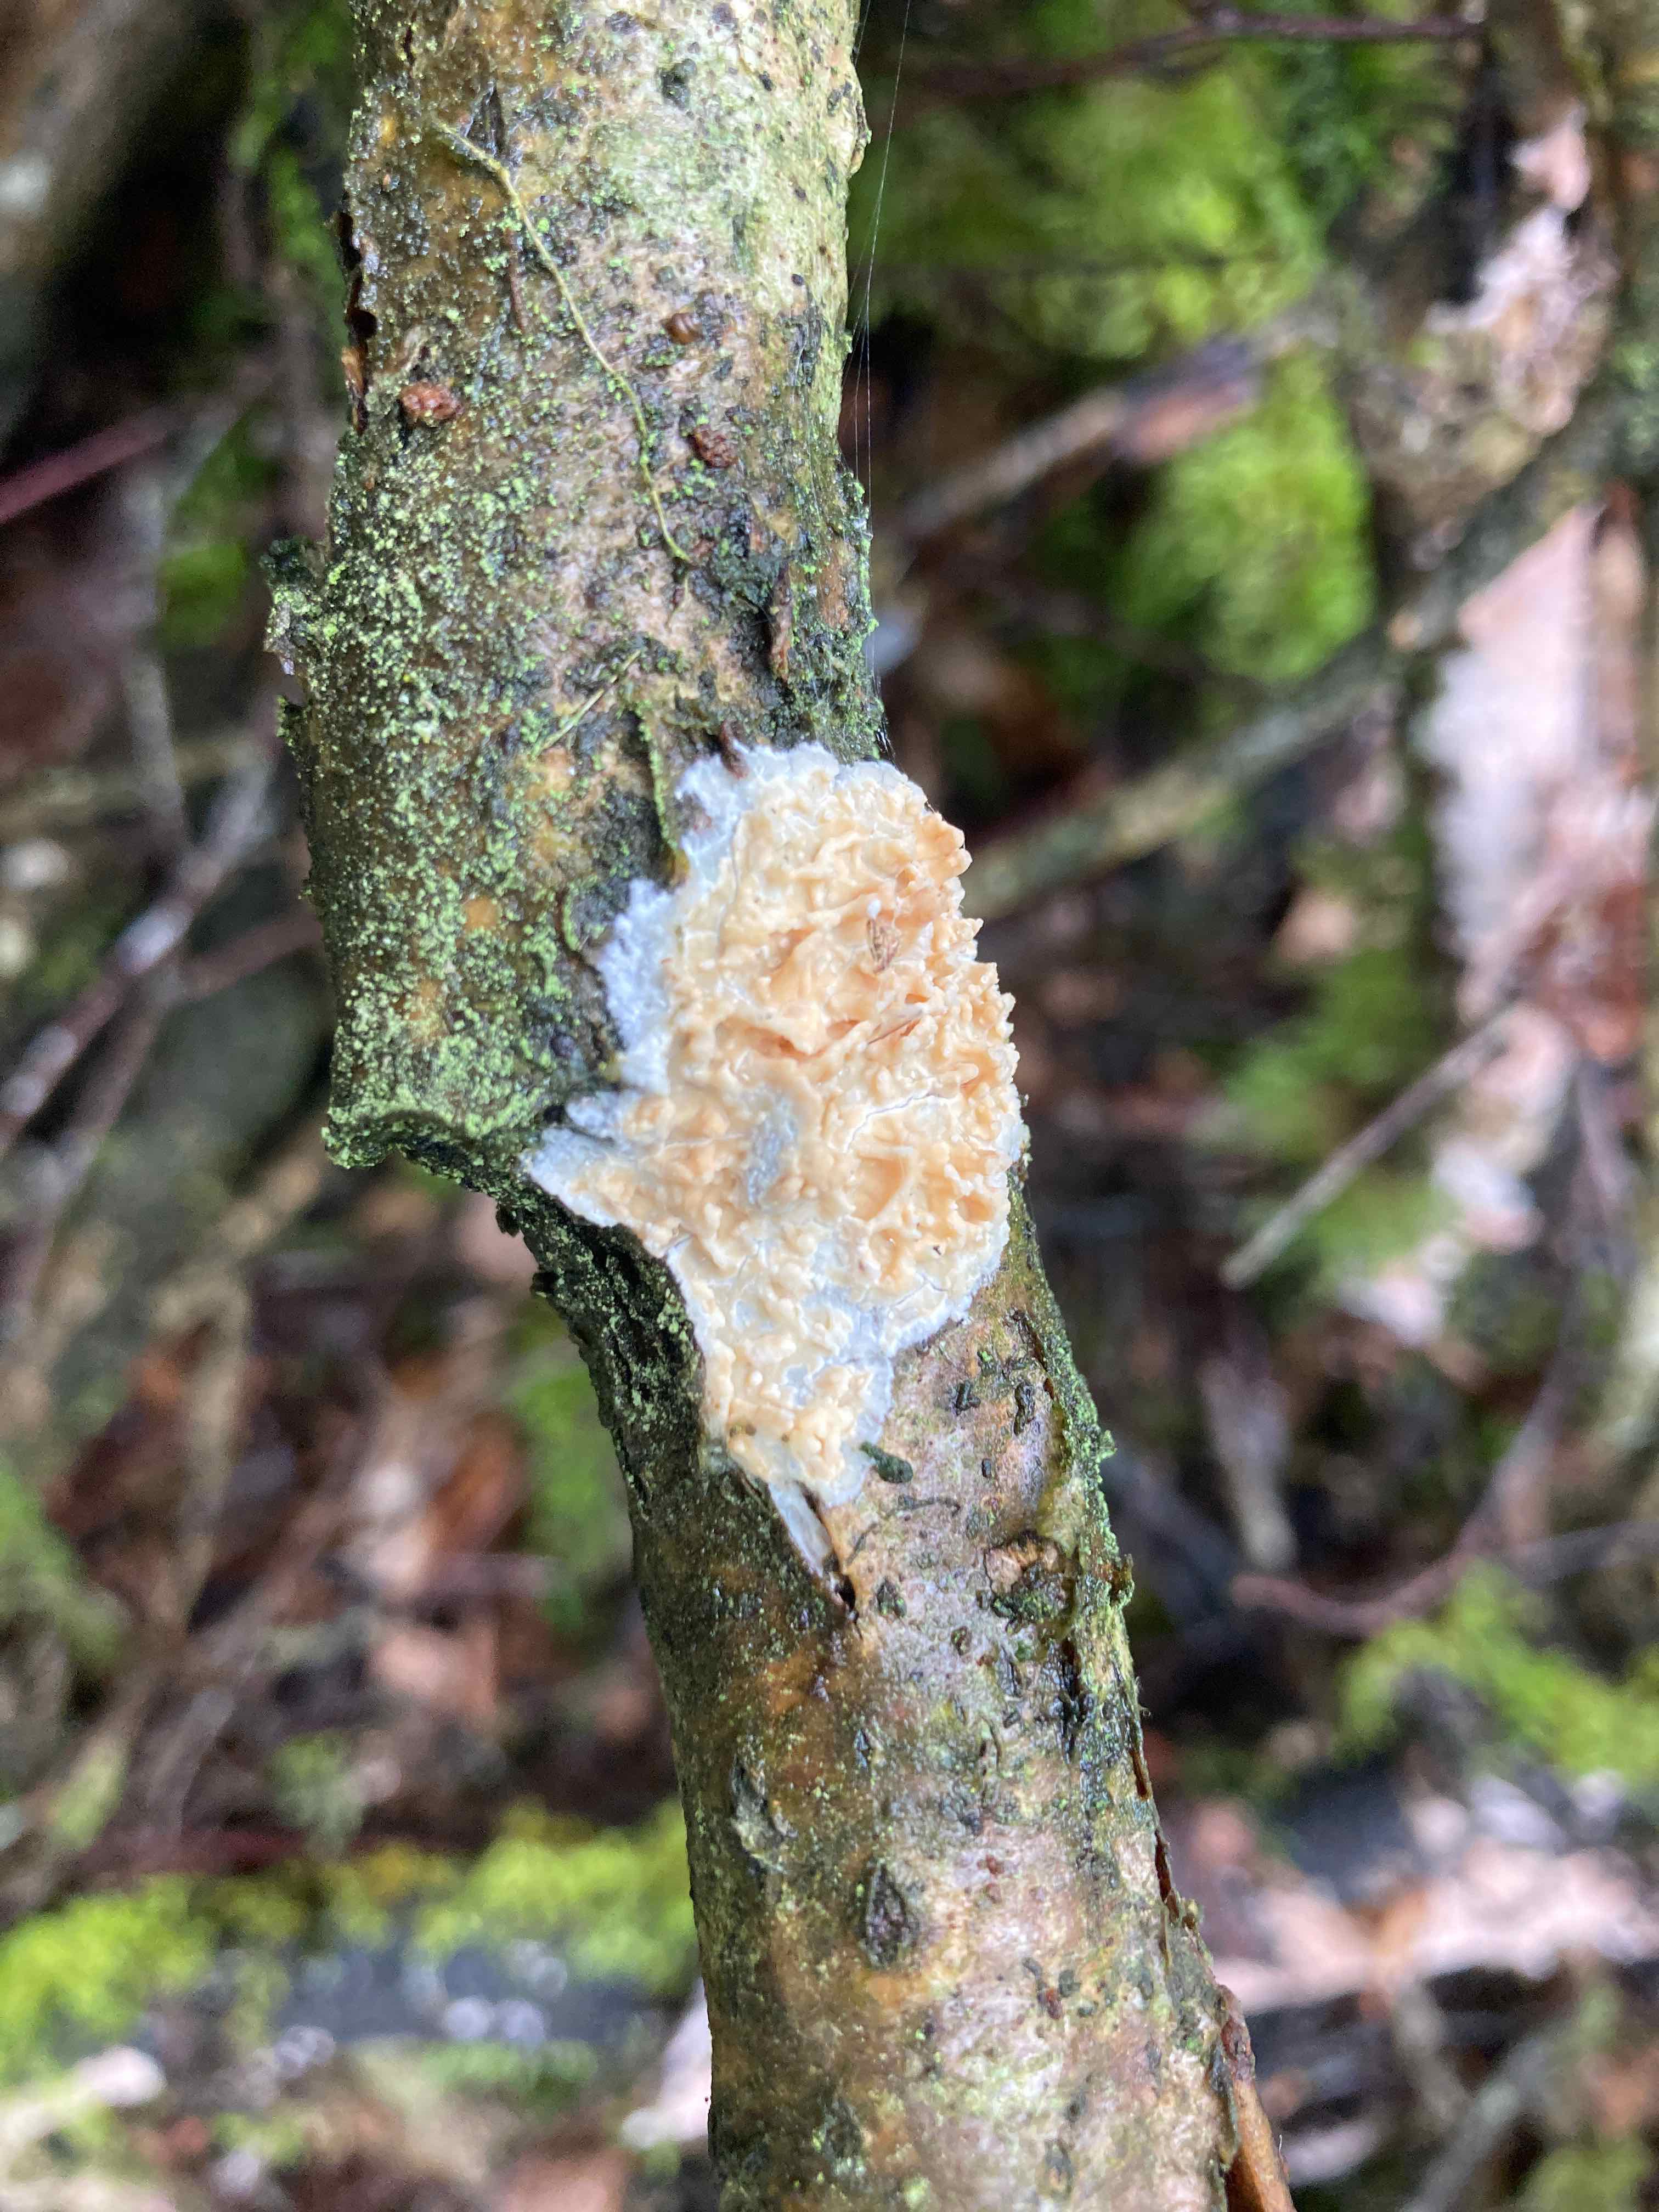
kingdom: Fungi
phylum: Basidiomycota
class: Agaricomycetes
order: Hymenochaetales
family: Schizoporaceae
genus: Xylodon
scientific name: Xylodon radula
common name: grovtandet kalkskind
